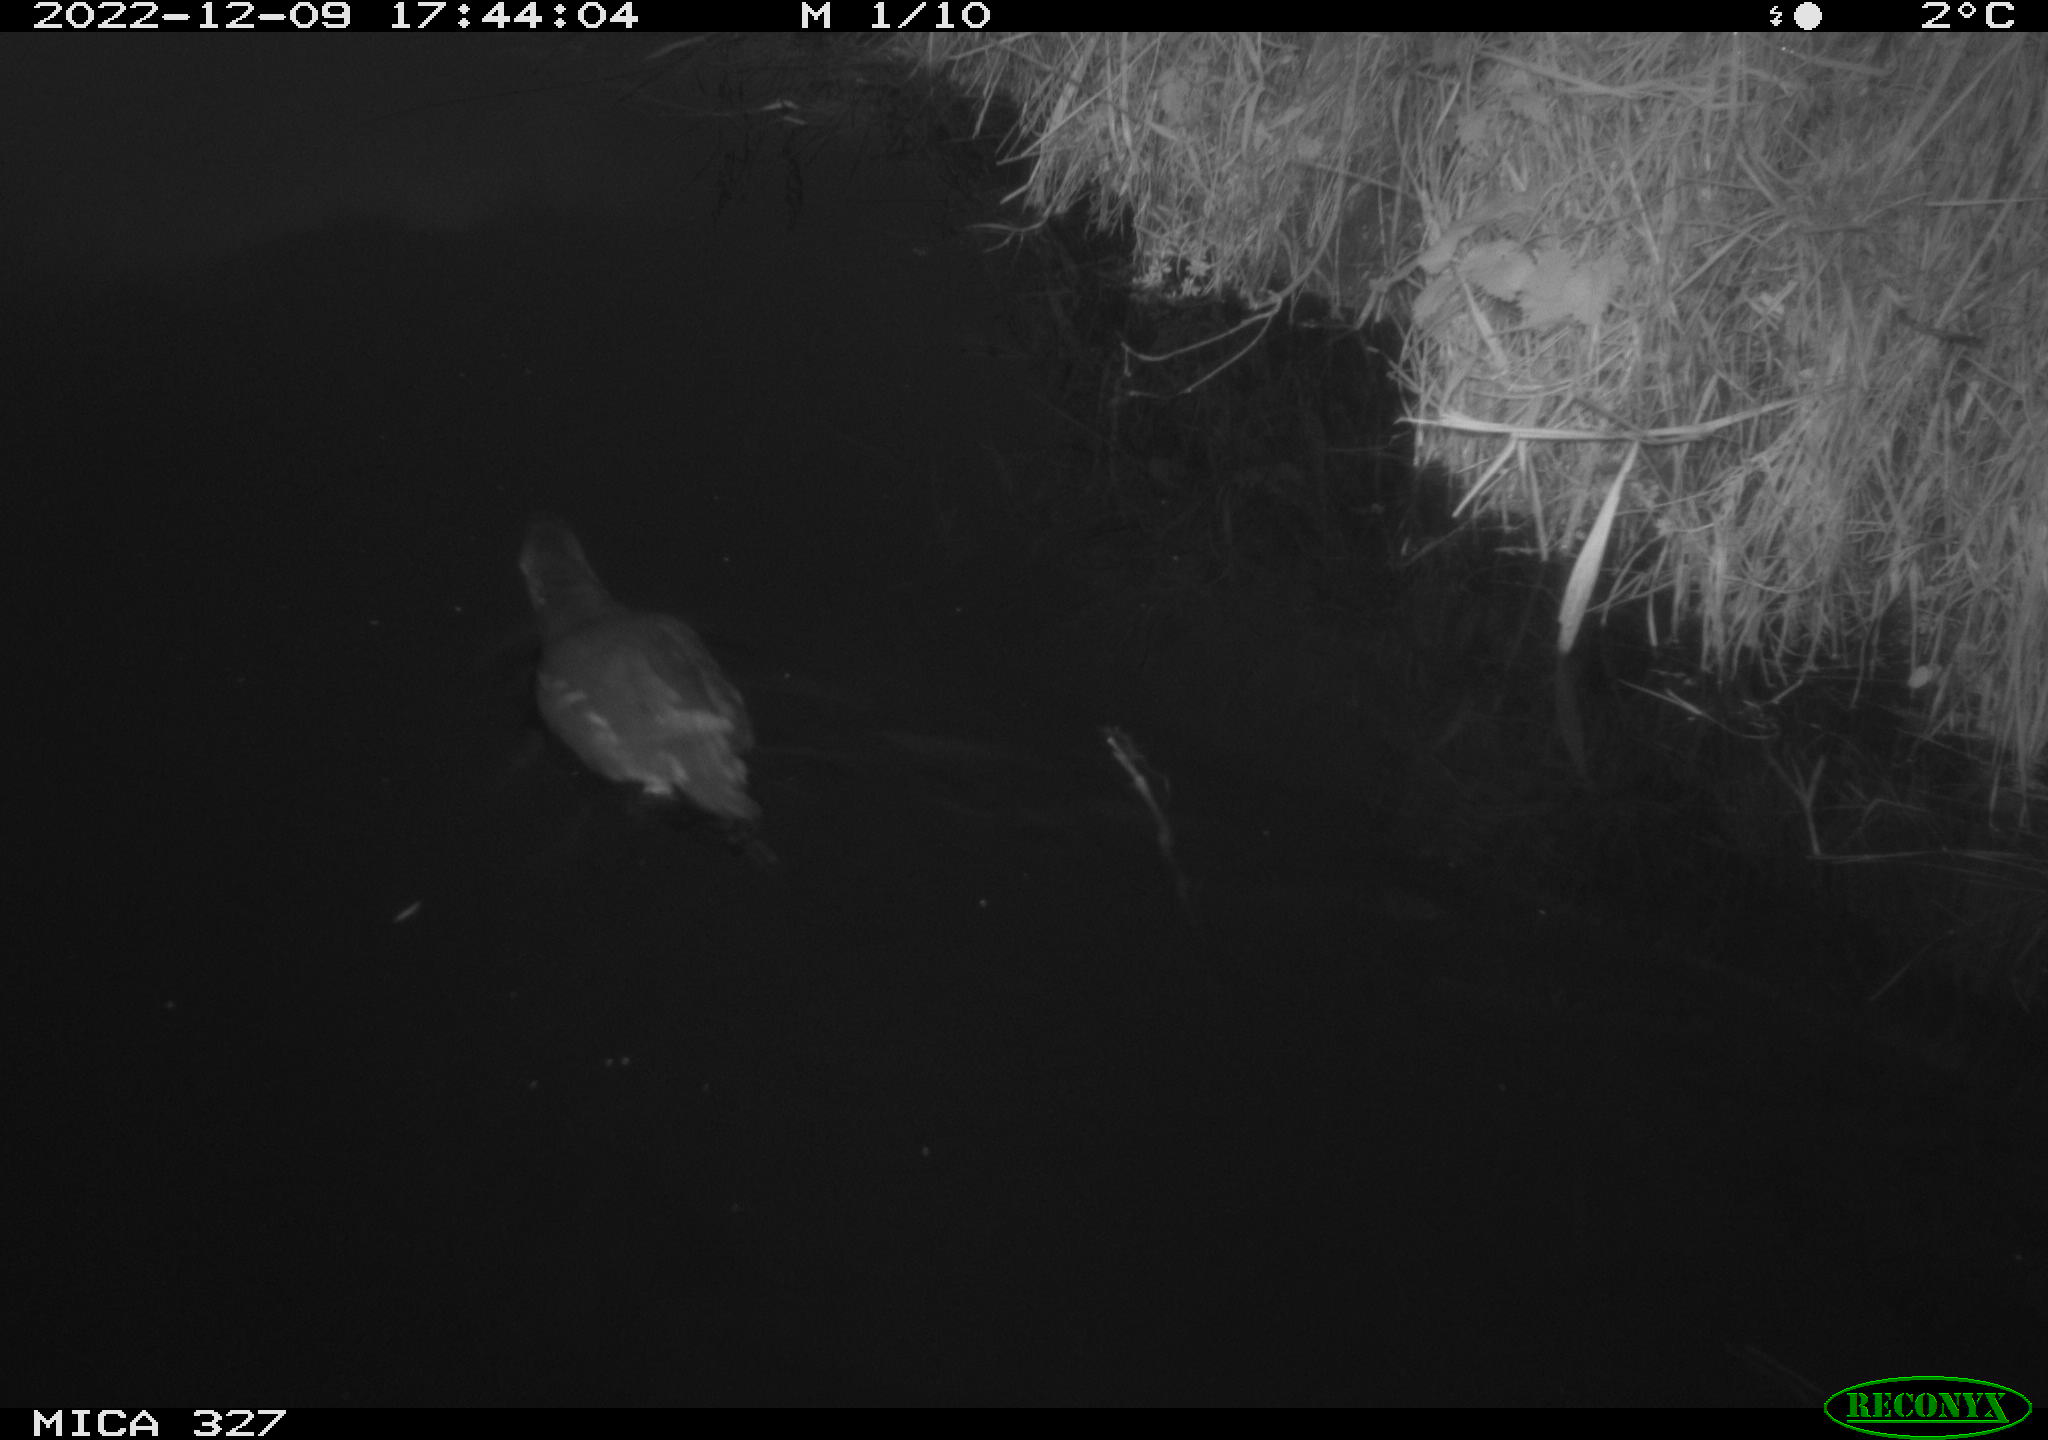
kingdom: Animalia
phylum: Chordata
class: Aves
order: Gruiformes
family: Rallidae
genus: Gallinula
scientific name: Gallinula chloropus
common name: Common moorhen
